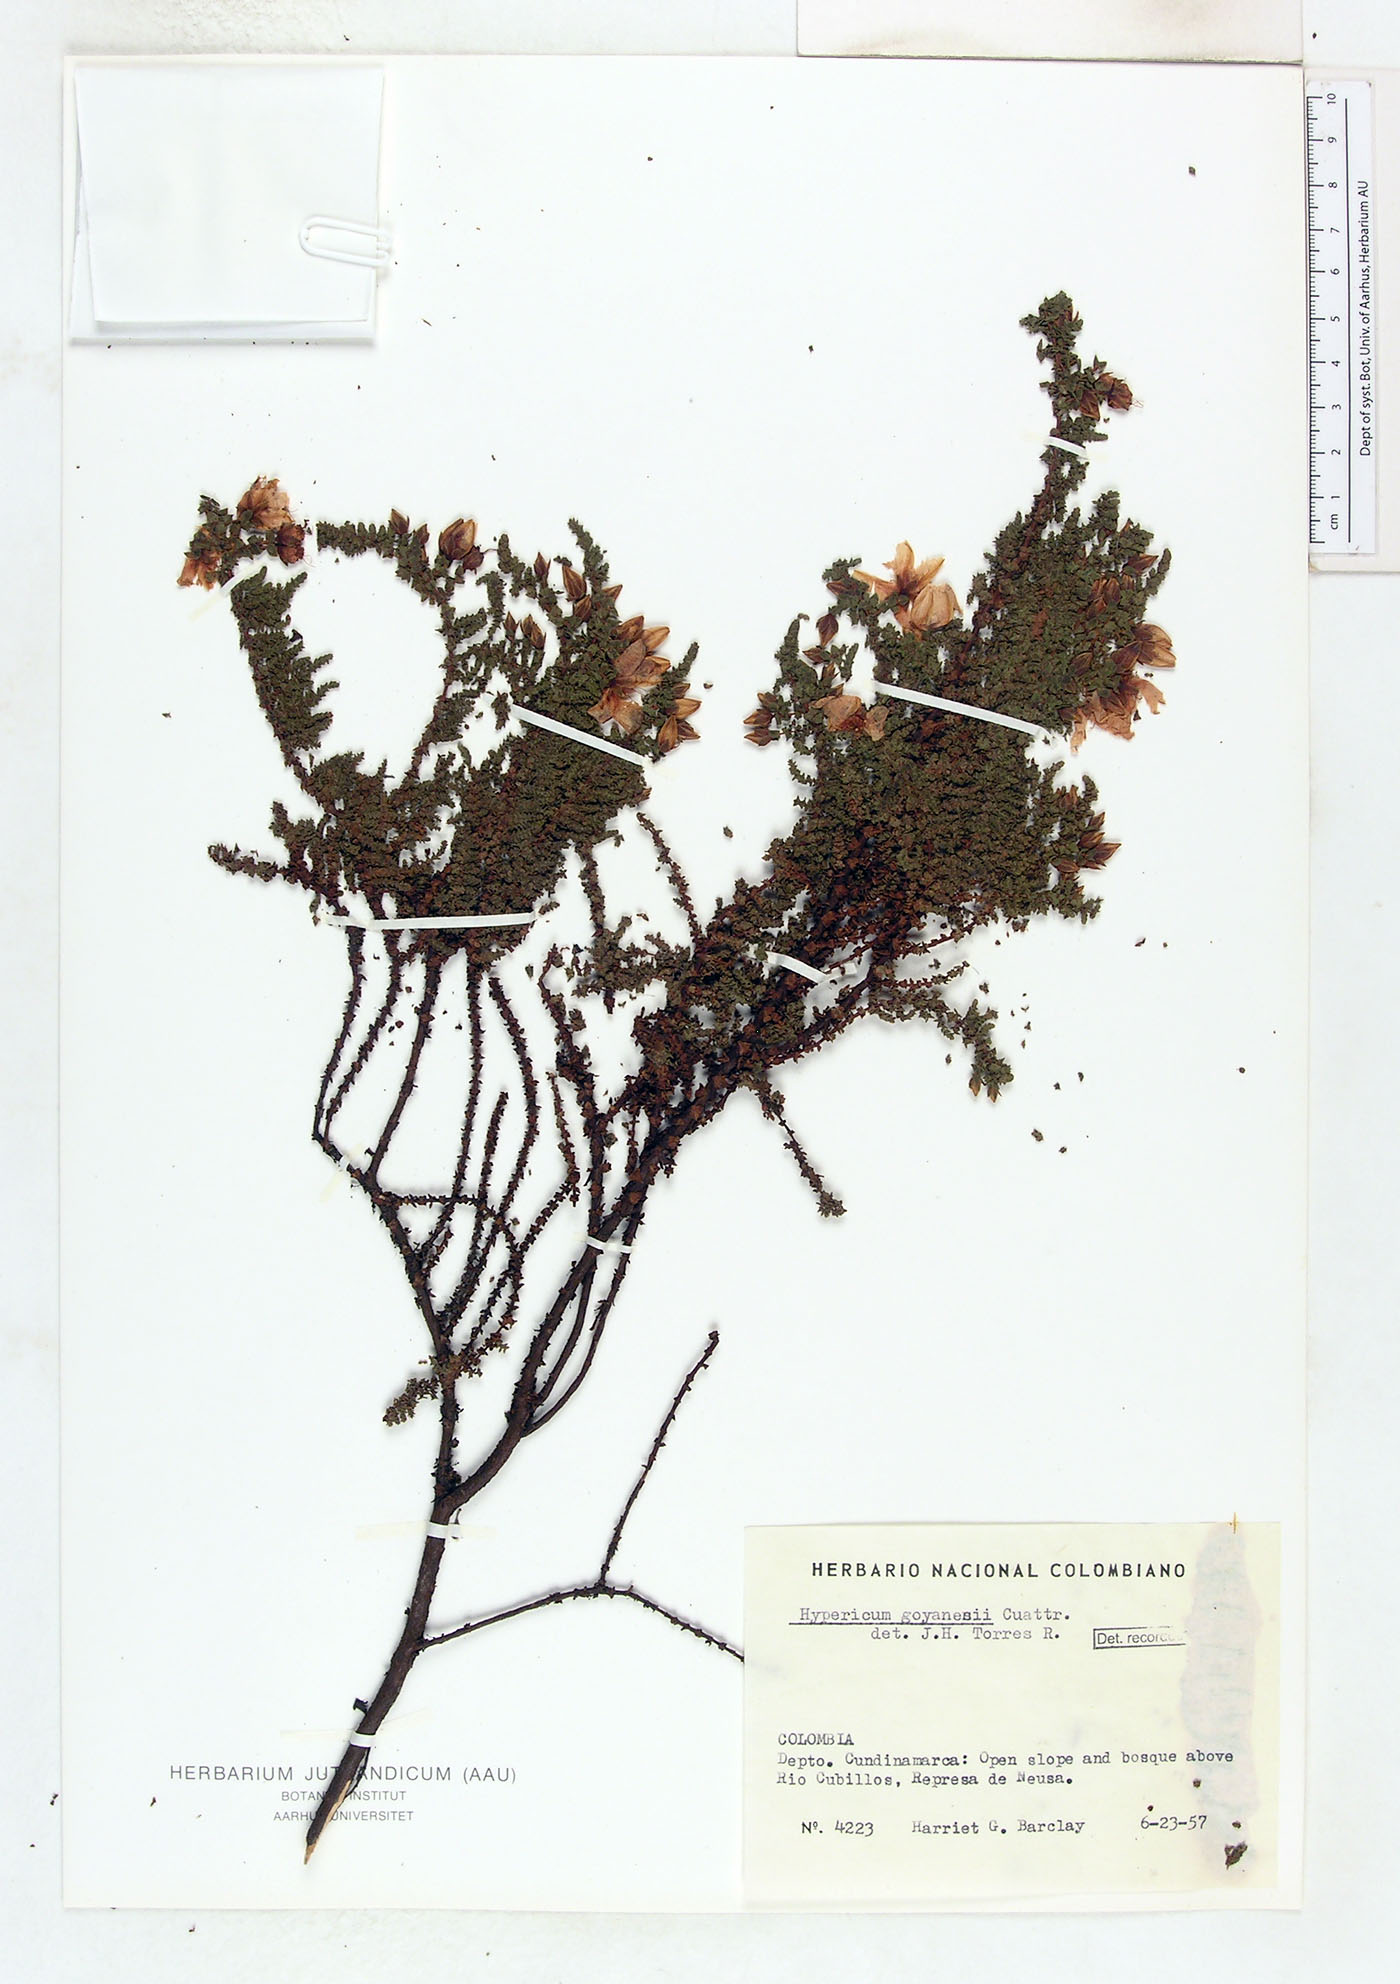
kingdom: Plantae
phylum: Tracheophyta
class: Magnoliopsida
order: Malpighiales
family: Hypericaceae
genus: Hypericum
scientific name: Hypericum goyanesii
